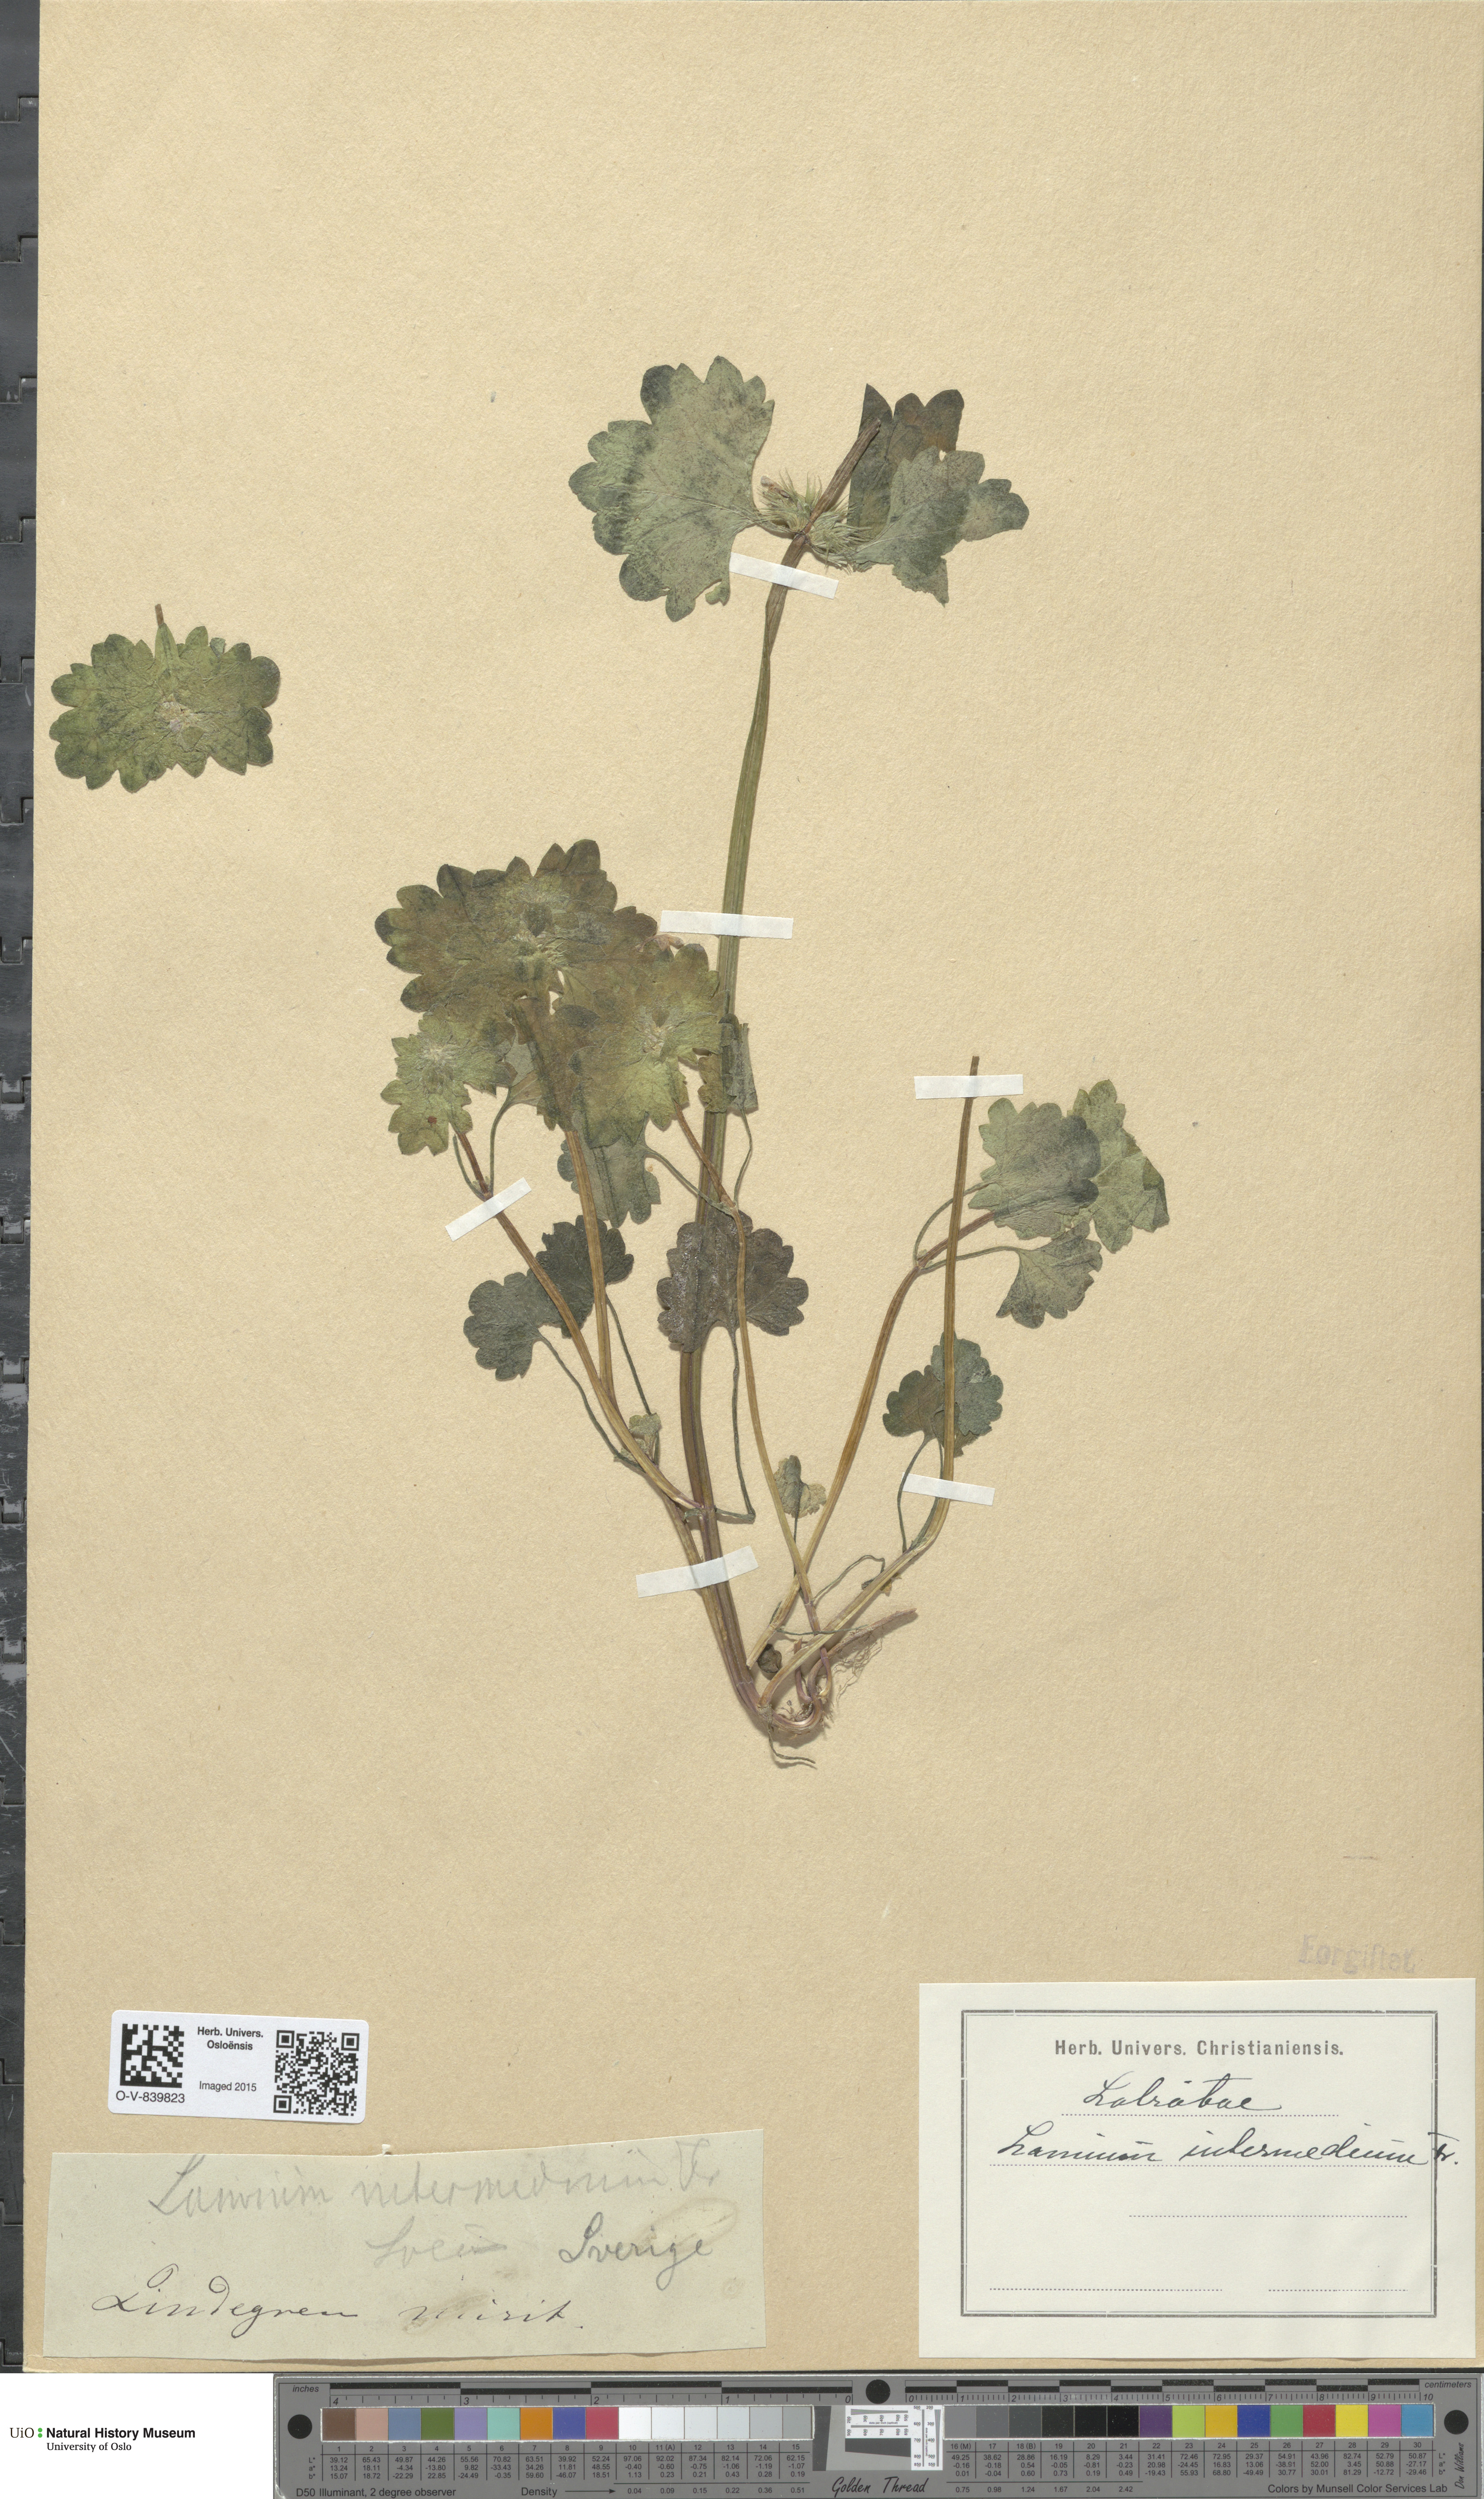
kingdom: Plantae
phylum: Tracheophyta
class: Magnoliopsida
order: Lamiales
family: Lamiaceae
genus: Lamium
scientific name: Lamium confertum
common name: Northern dead-nettle
